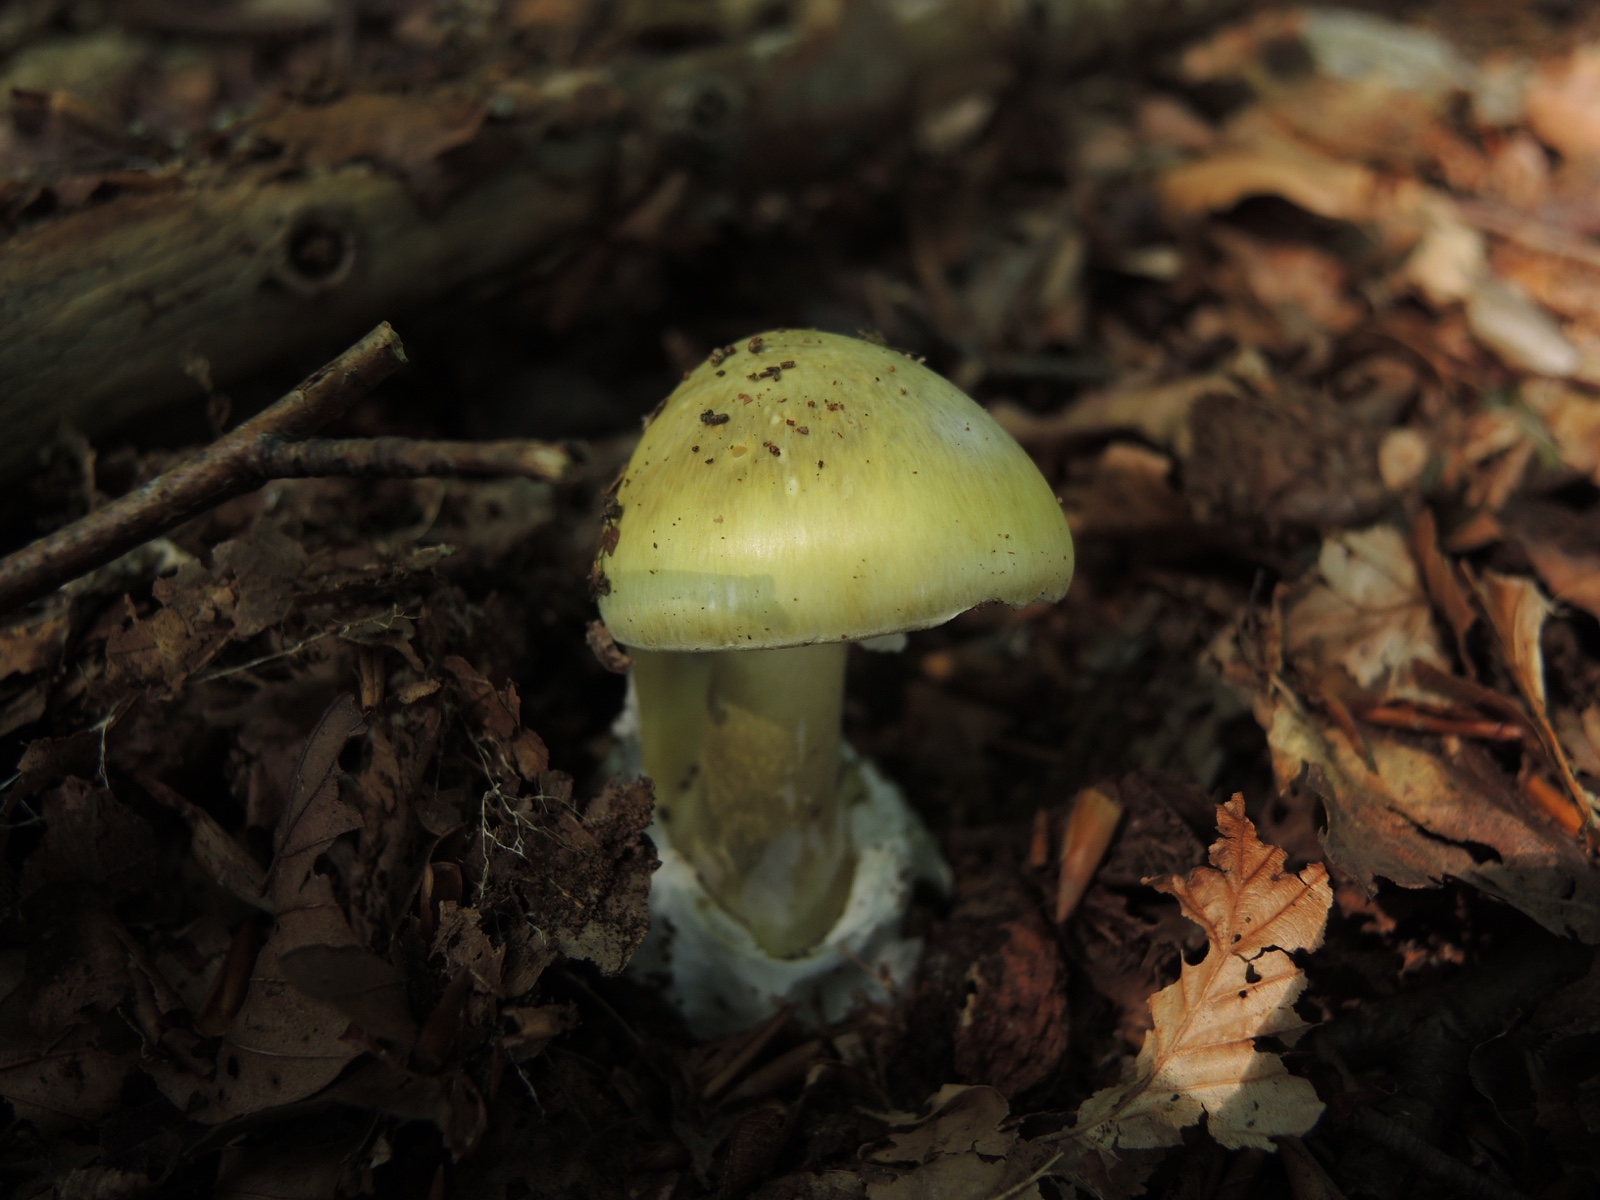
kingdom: Fungi
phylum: Basidiomycota
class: Agaricomycetes
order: Agaricales
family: Amanitaceae
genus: Amanita
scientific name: Amanita phalloides
